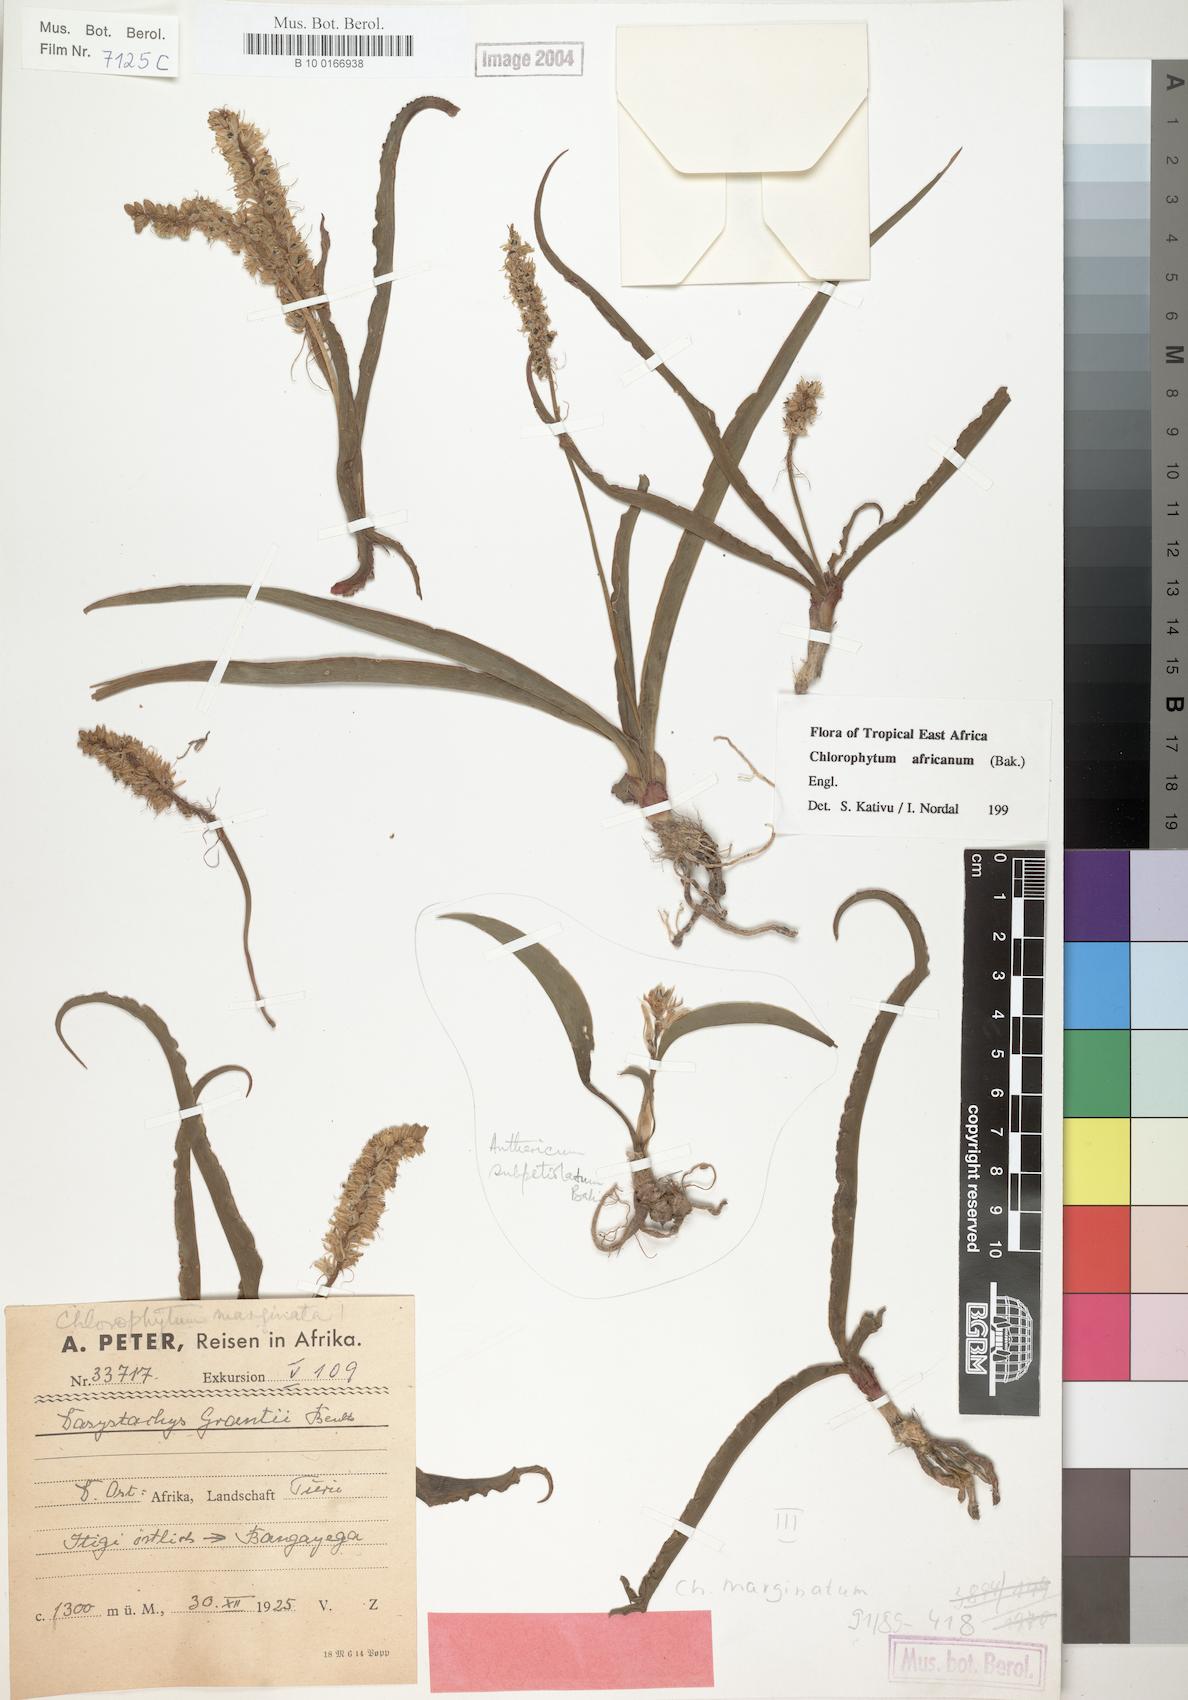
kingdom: Plantae
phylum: Tracheophyta
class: Liliopsida
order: Asparagales
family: Asparagaceae
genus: Chlorophytum
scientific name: Chlorophytum africanum
